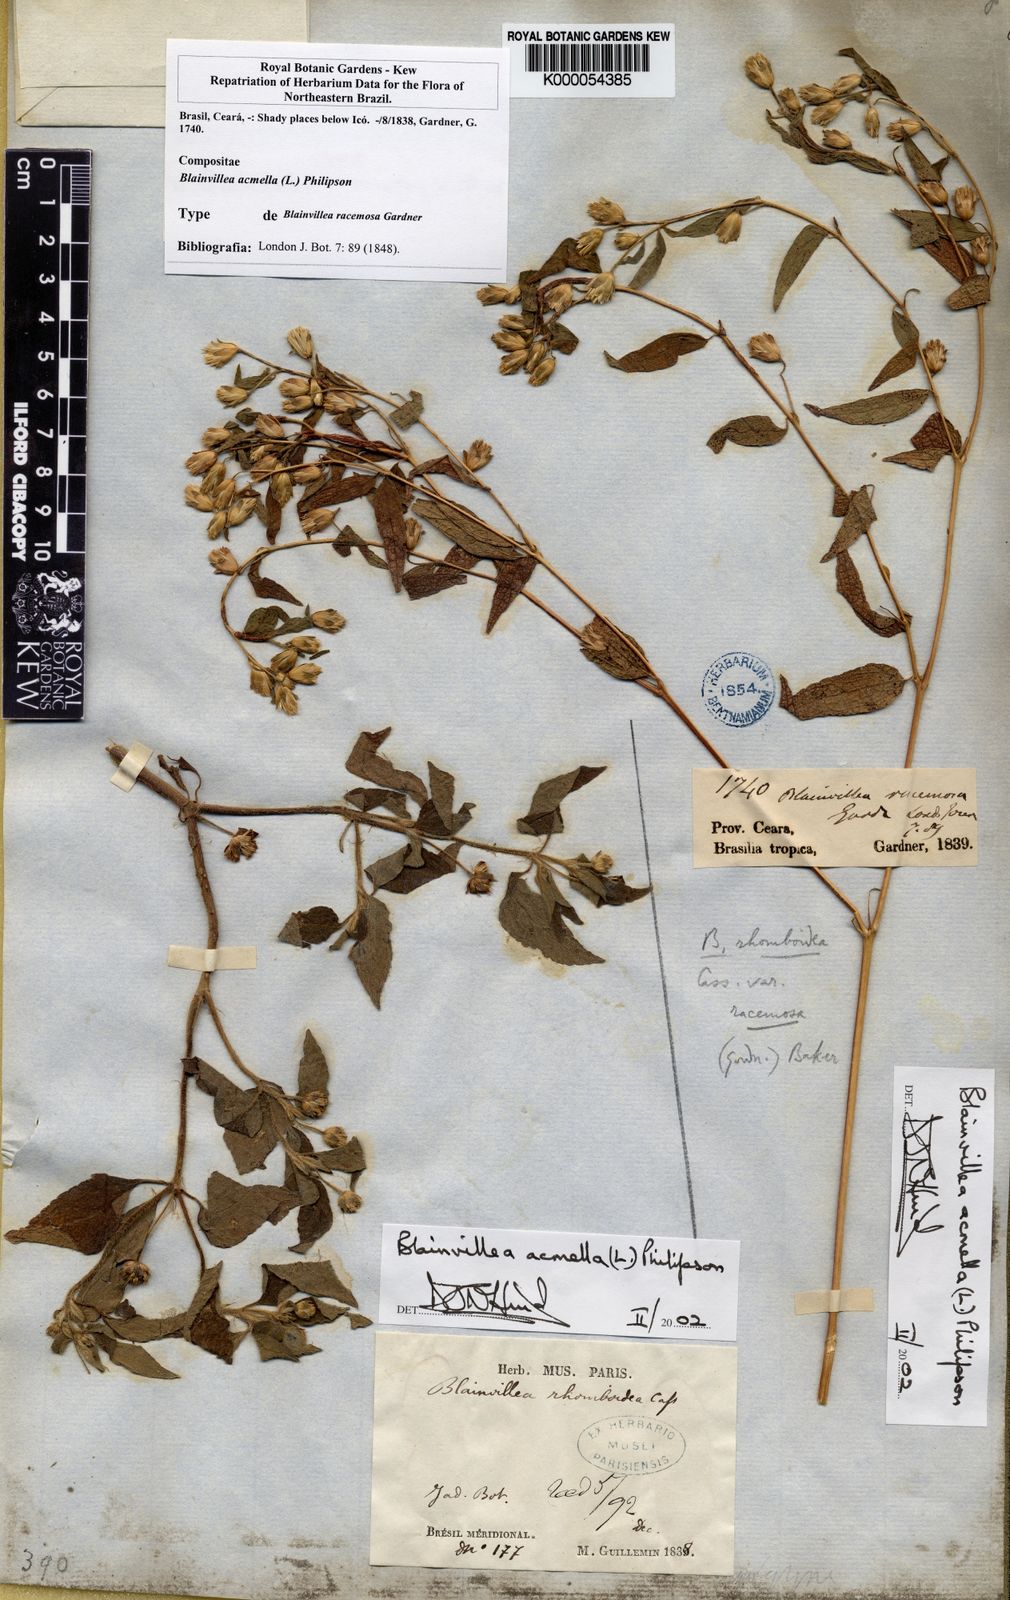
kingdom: Plantae
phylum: Tracheophyta
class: Magnoliopsida
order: Asterales
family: Asteraceae
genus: Blainvillea
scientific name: Blainvillea acmella
